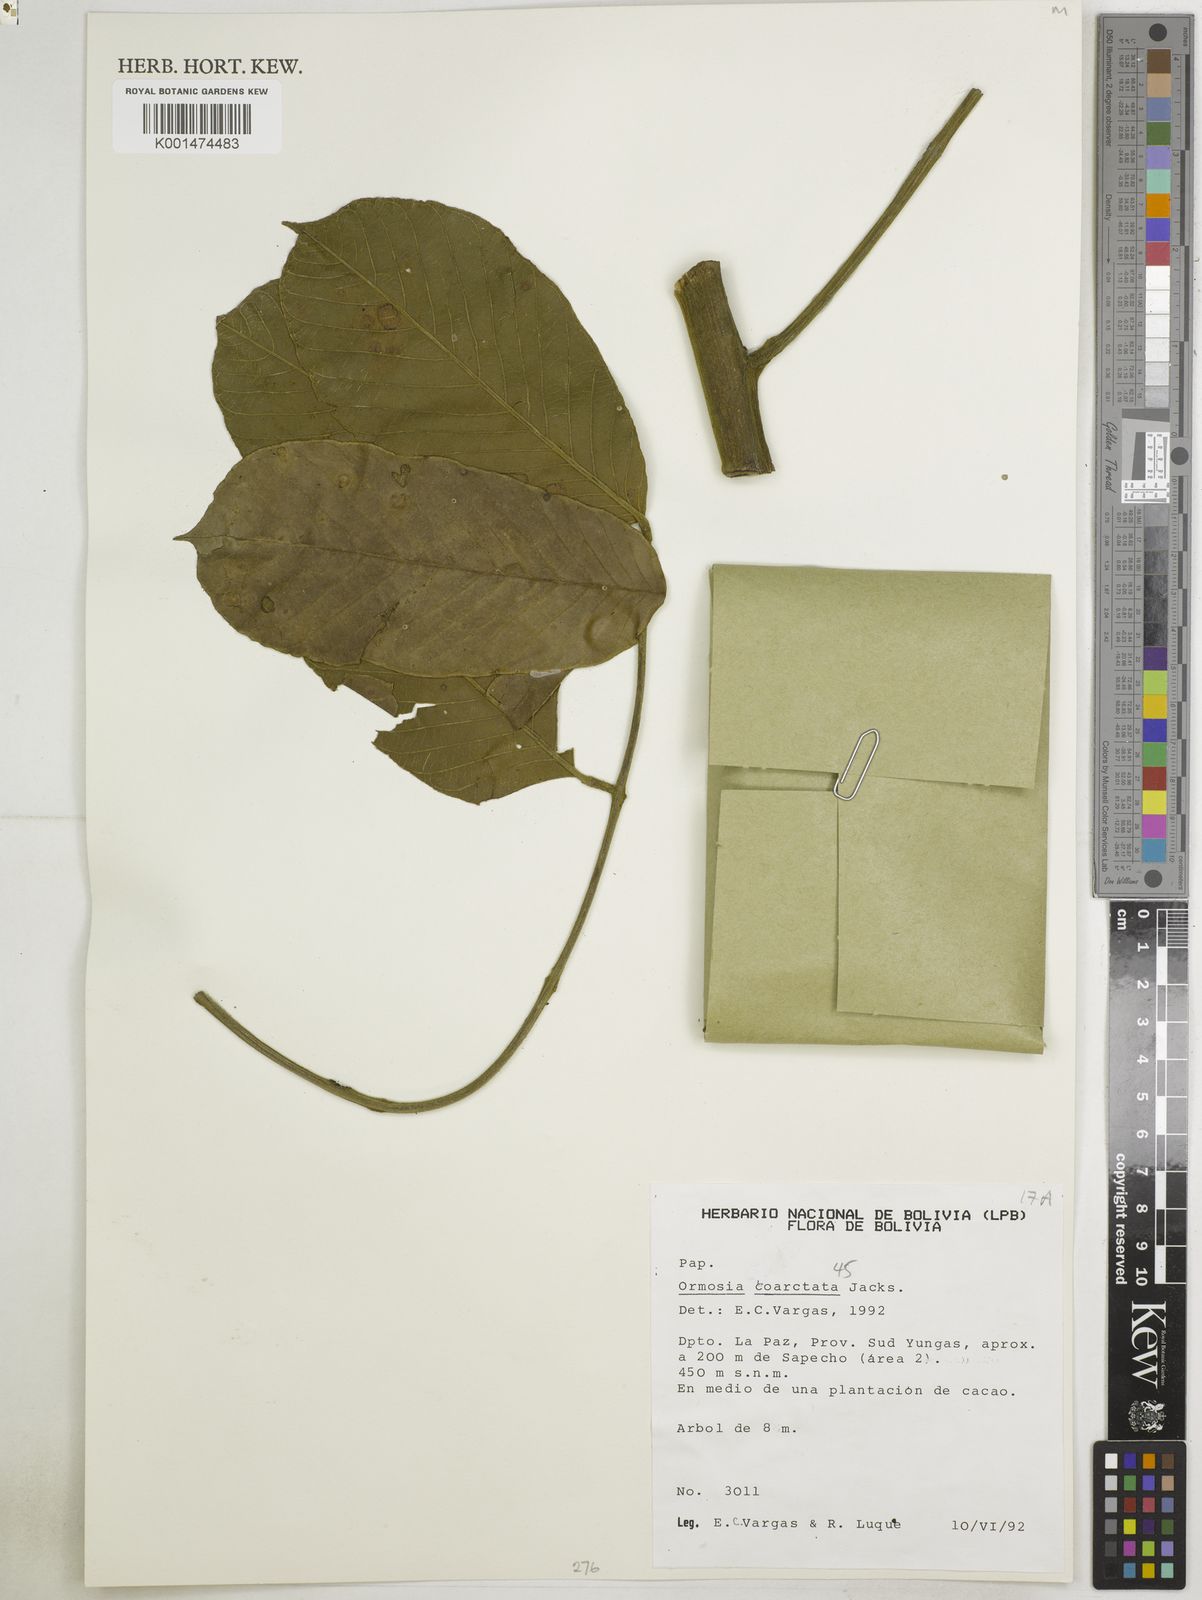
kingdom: Plantae
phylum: Tracheophyta
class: Magnoliopsida
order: Fabales
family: Fabaceae
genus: Ormosia
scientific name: Ormosia coarctata
